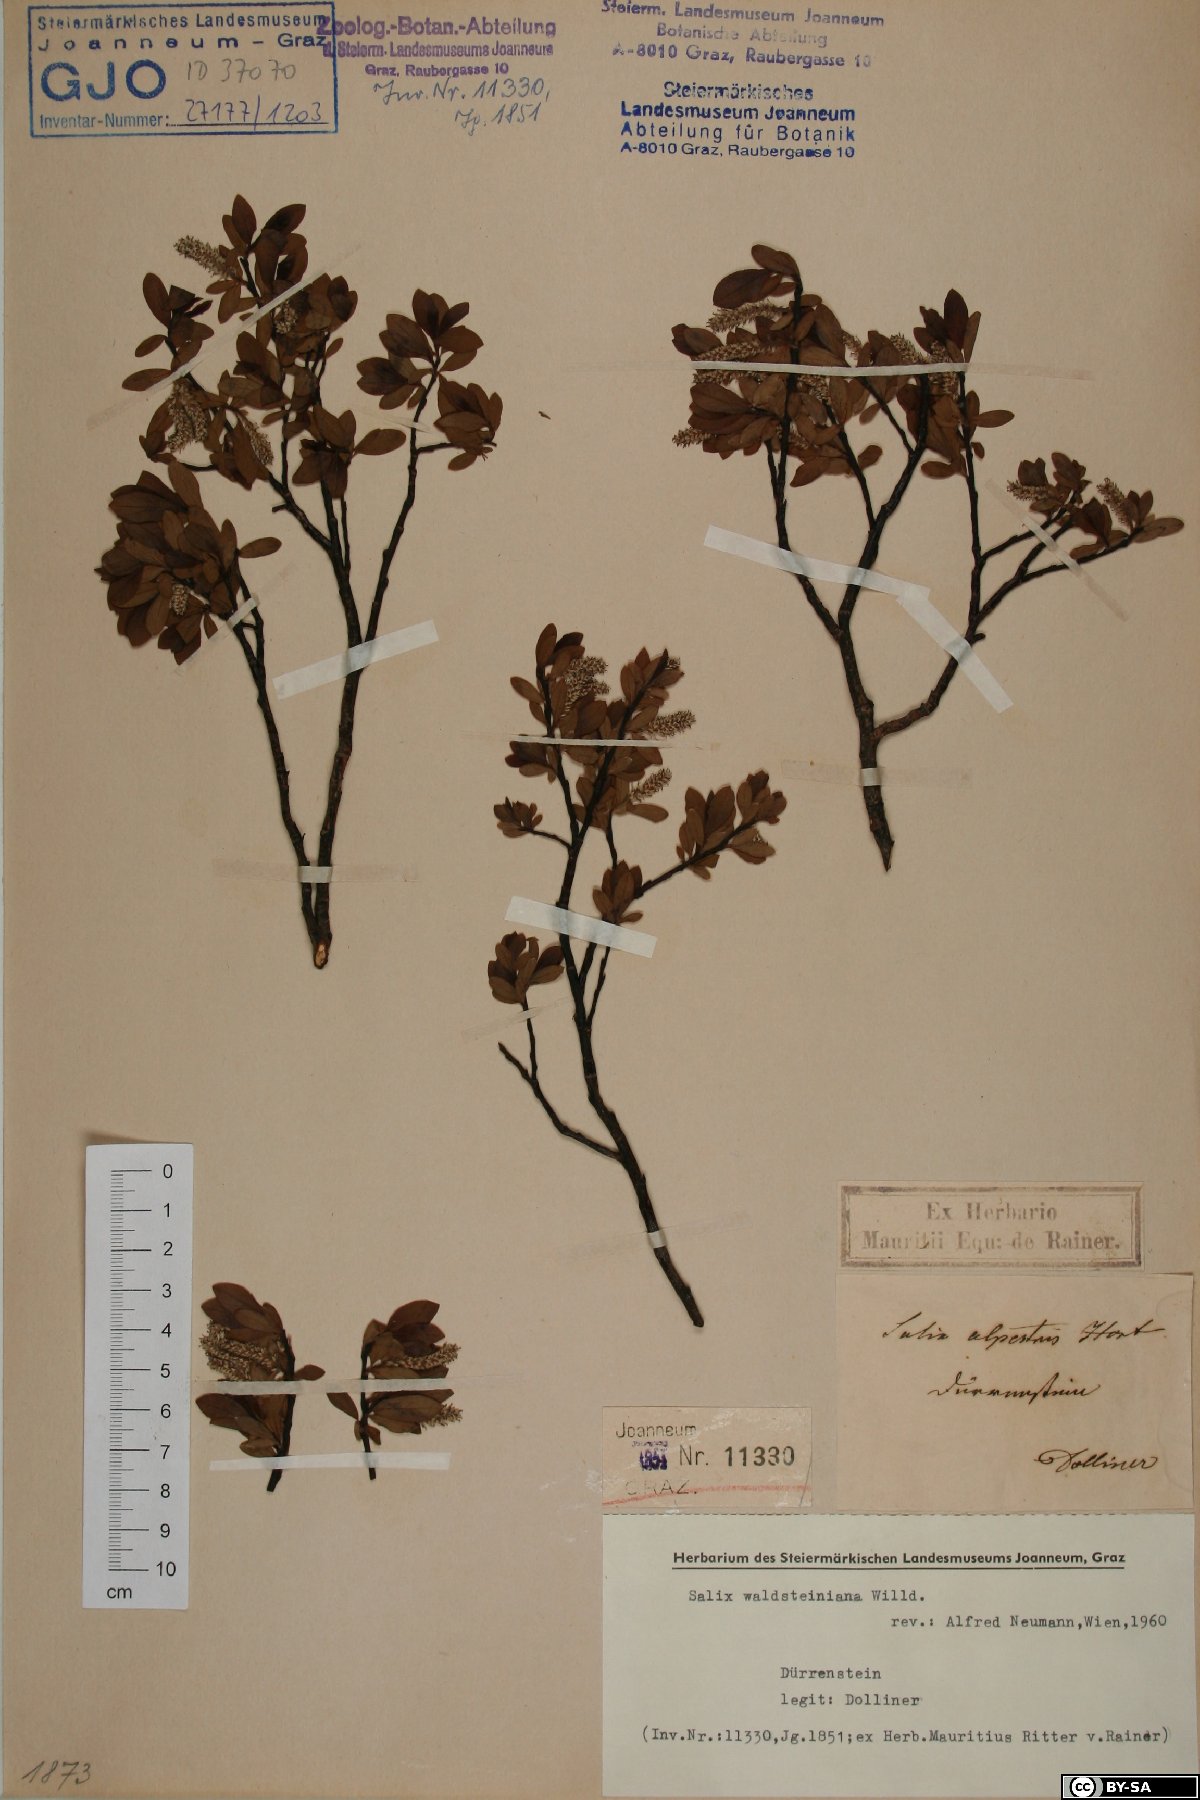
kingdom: Plantae
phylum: Tracheophyta
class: Magnoliopsida
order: Malpighiales
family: Salicaceae
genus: Salix
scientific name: Salix waldsteiniana
